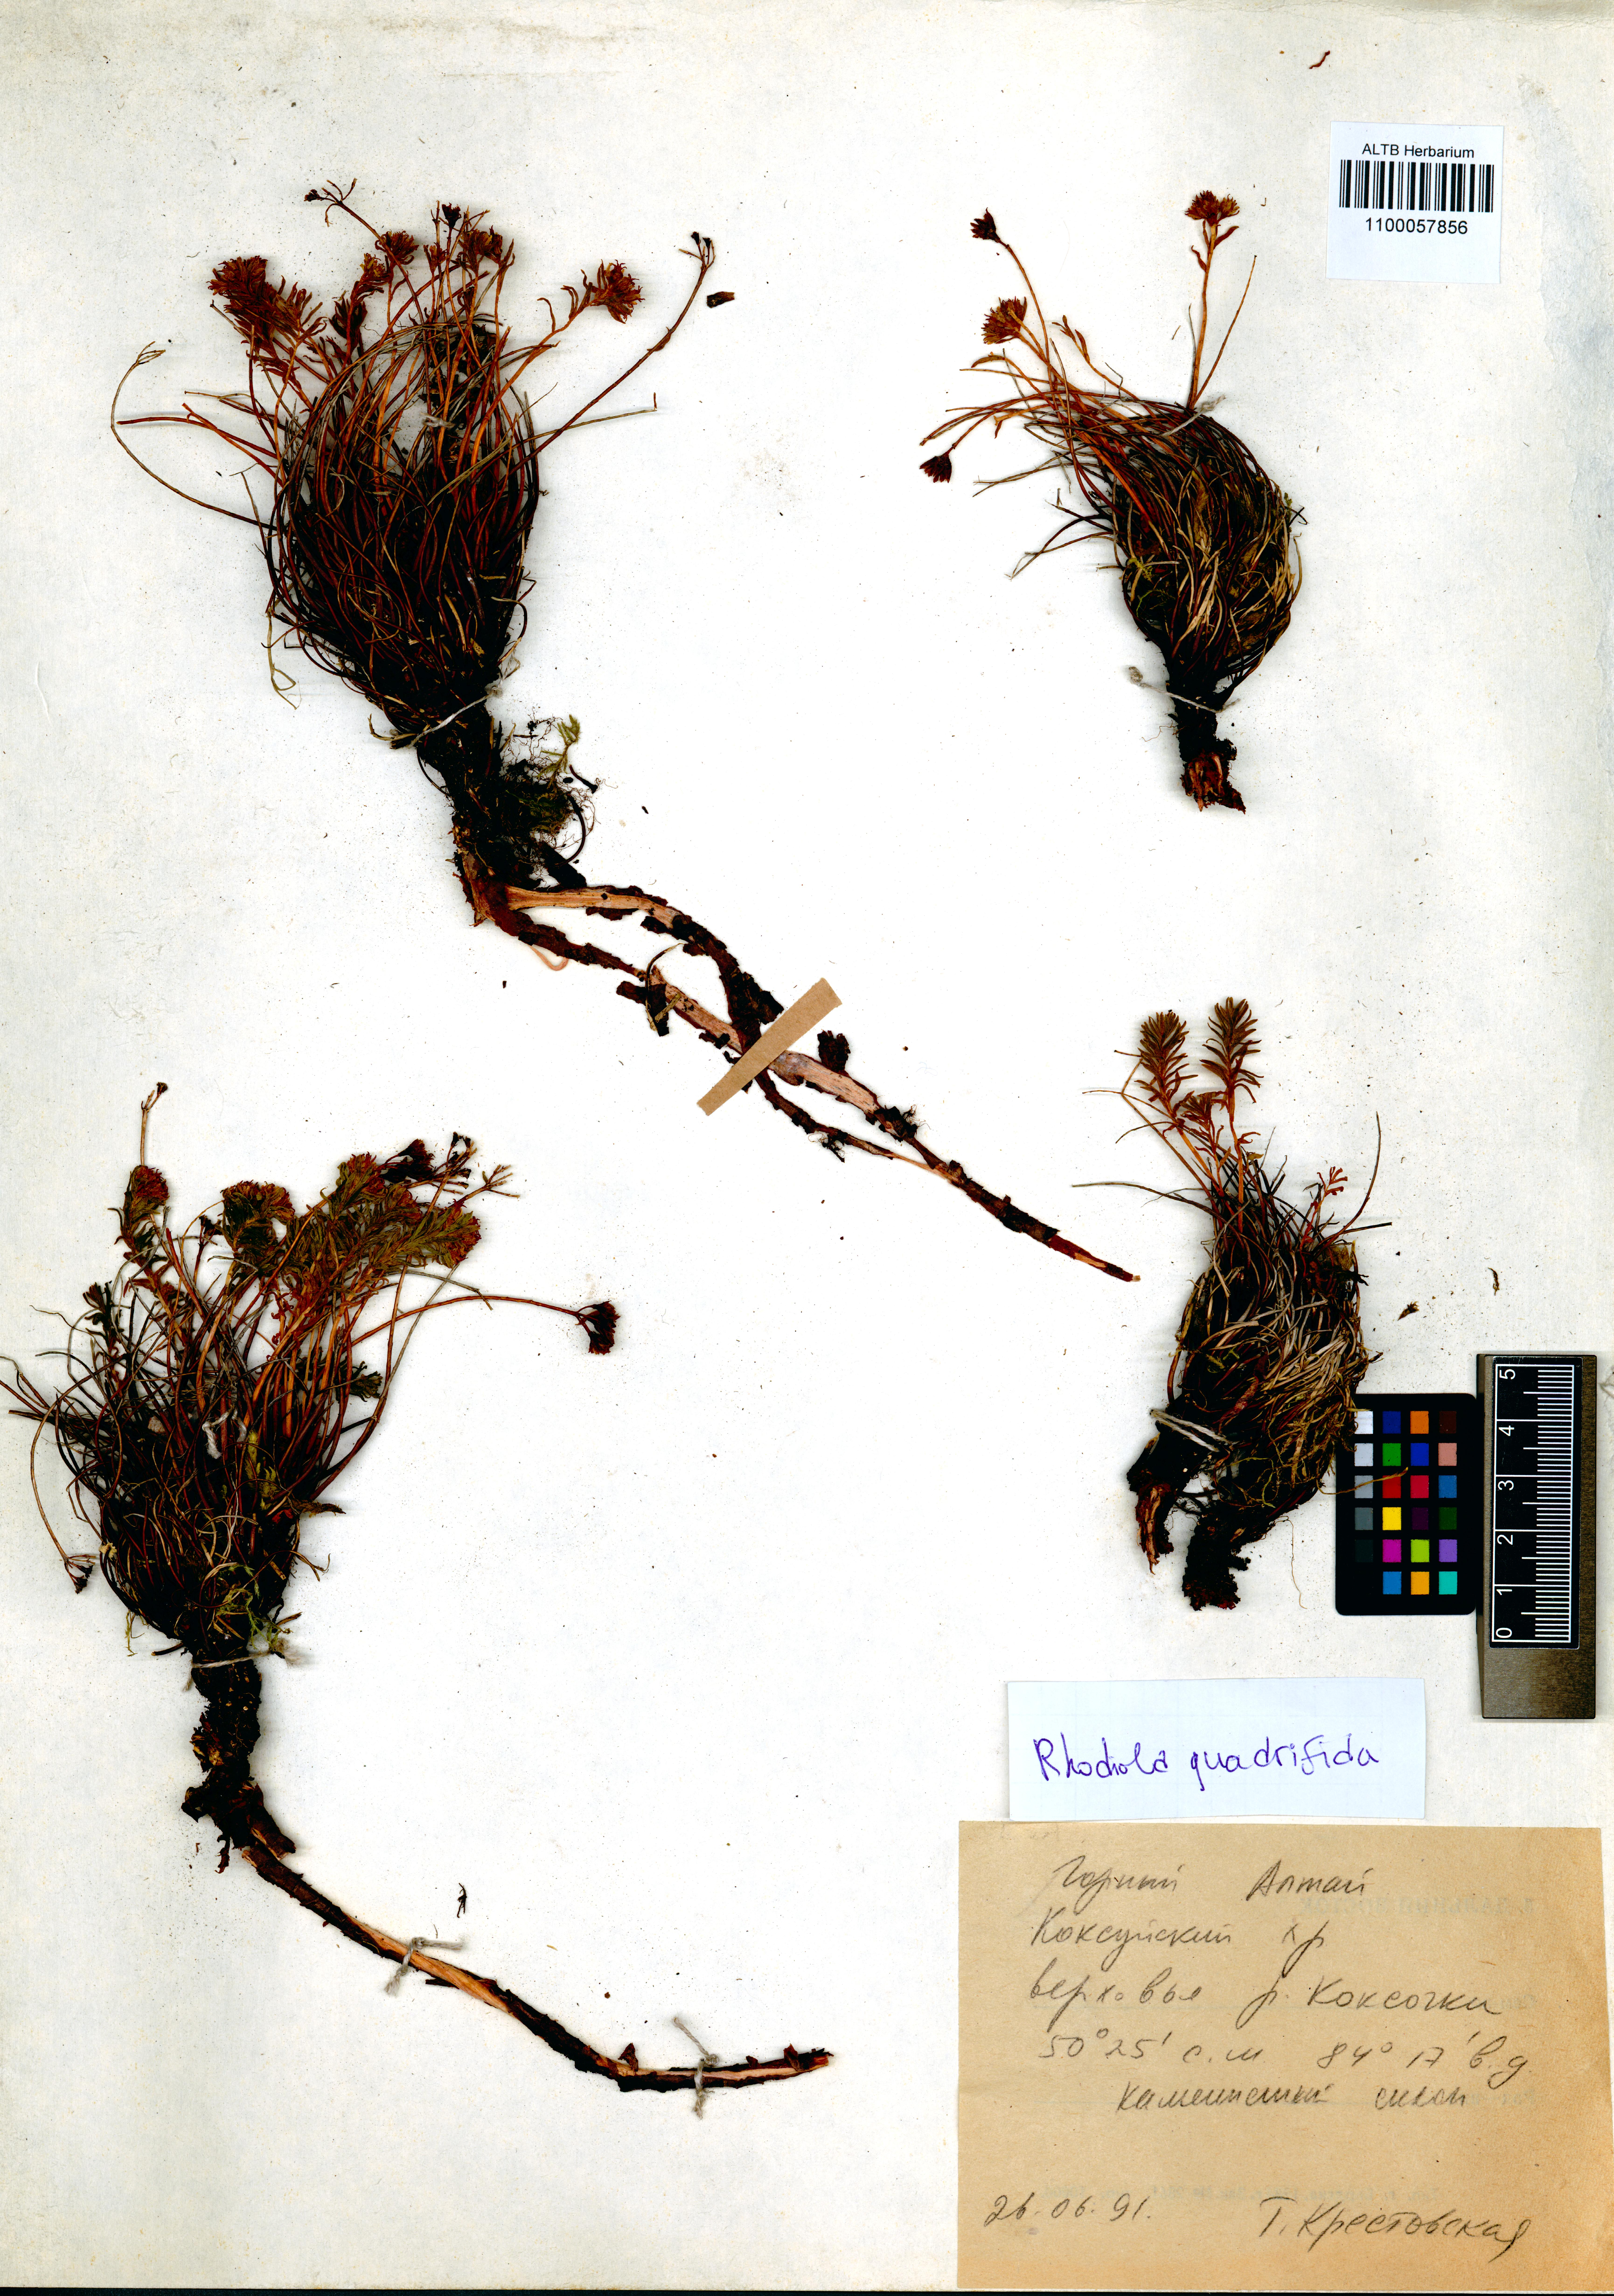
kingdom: Plantae
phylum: Tracheophyta
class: Magnoliopsida
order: Saxifragales
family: Crassulaceae
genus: Rhodiola
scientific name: Rhodiola quadrifida
